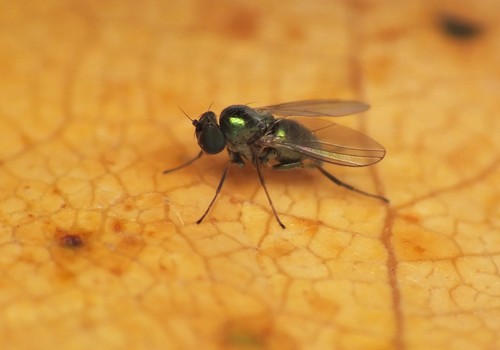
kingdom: Animalia
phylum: Arthropoda
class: Insecta
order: Diptera
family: Dolichopodidae
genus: Thrypticus
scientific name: Thrypticus
